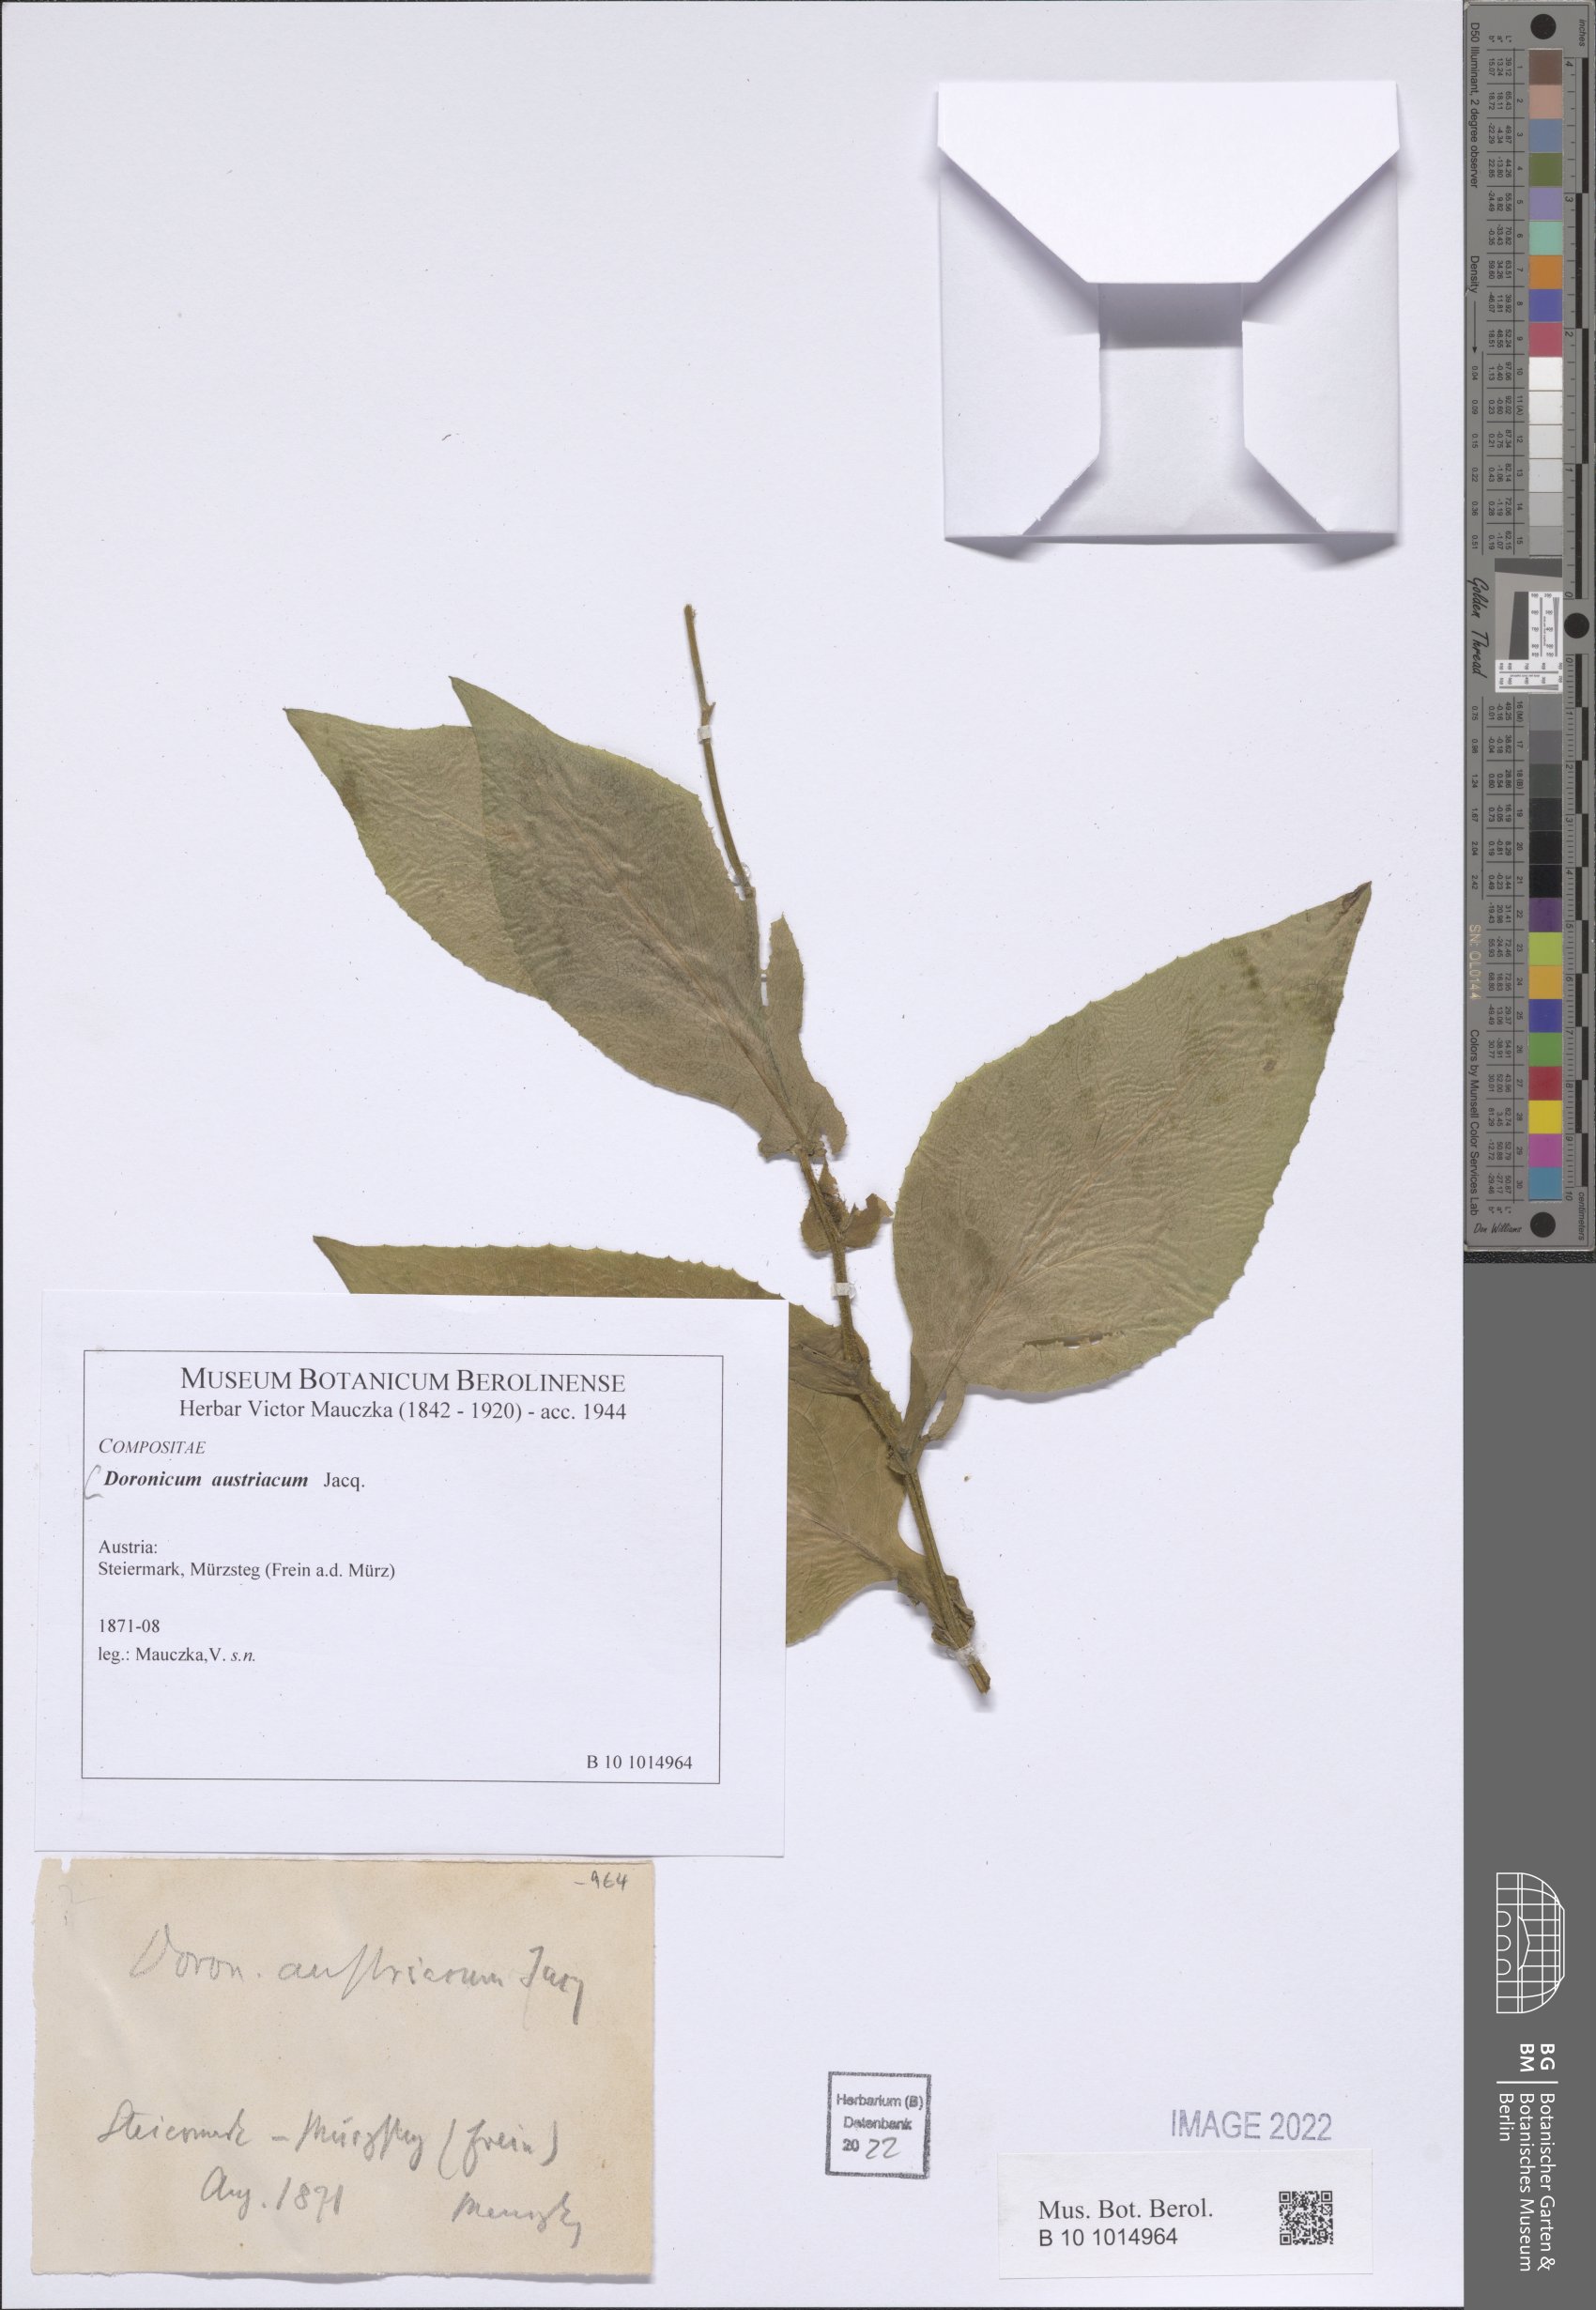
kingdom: Plantae
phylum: Tracheophyta
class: Magnoliopsida
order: Asterales
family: Asteraceae
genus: Doronicum
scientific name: Doronicum austriacum
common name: Austrian leopard's-bane
